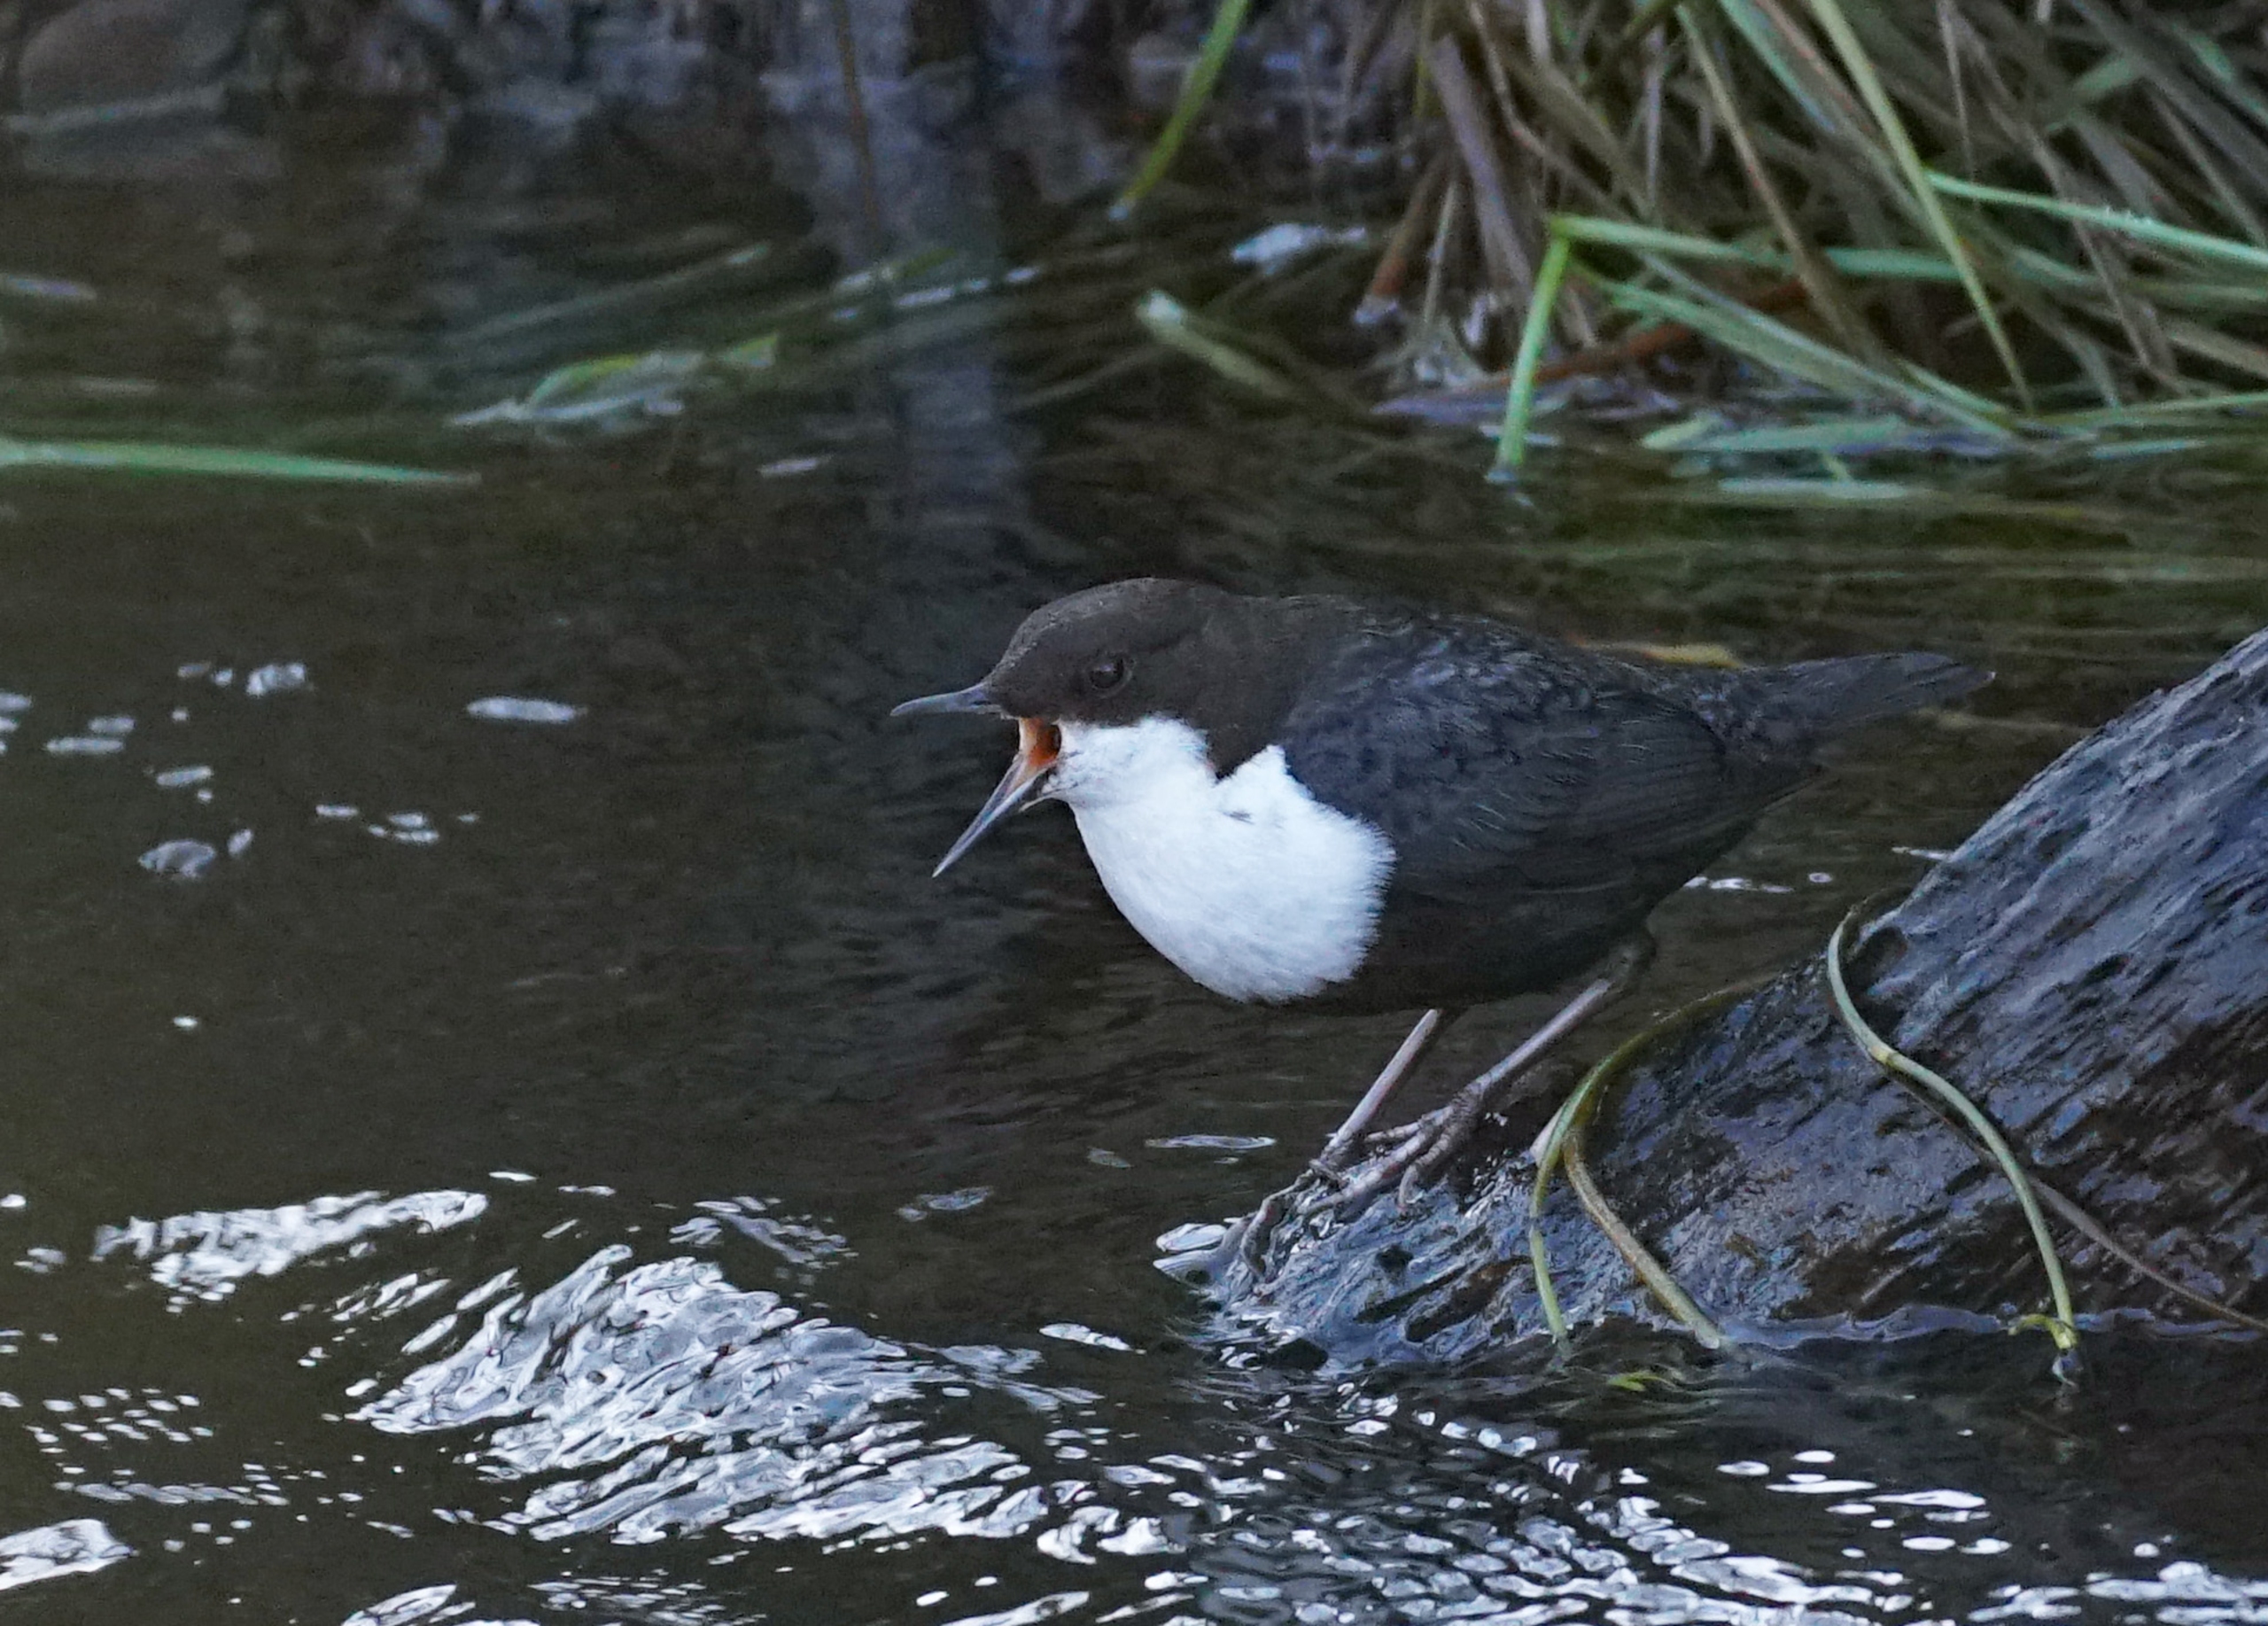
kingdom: Animalia
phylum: Chordata
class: Aves
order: Passeriformes
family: Cinclidae
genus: Cinclus
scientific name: Cinclus cinclus
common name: Vandstær
